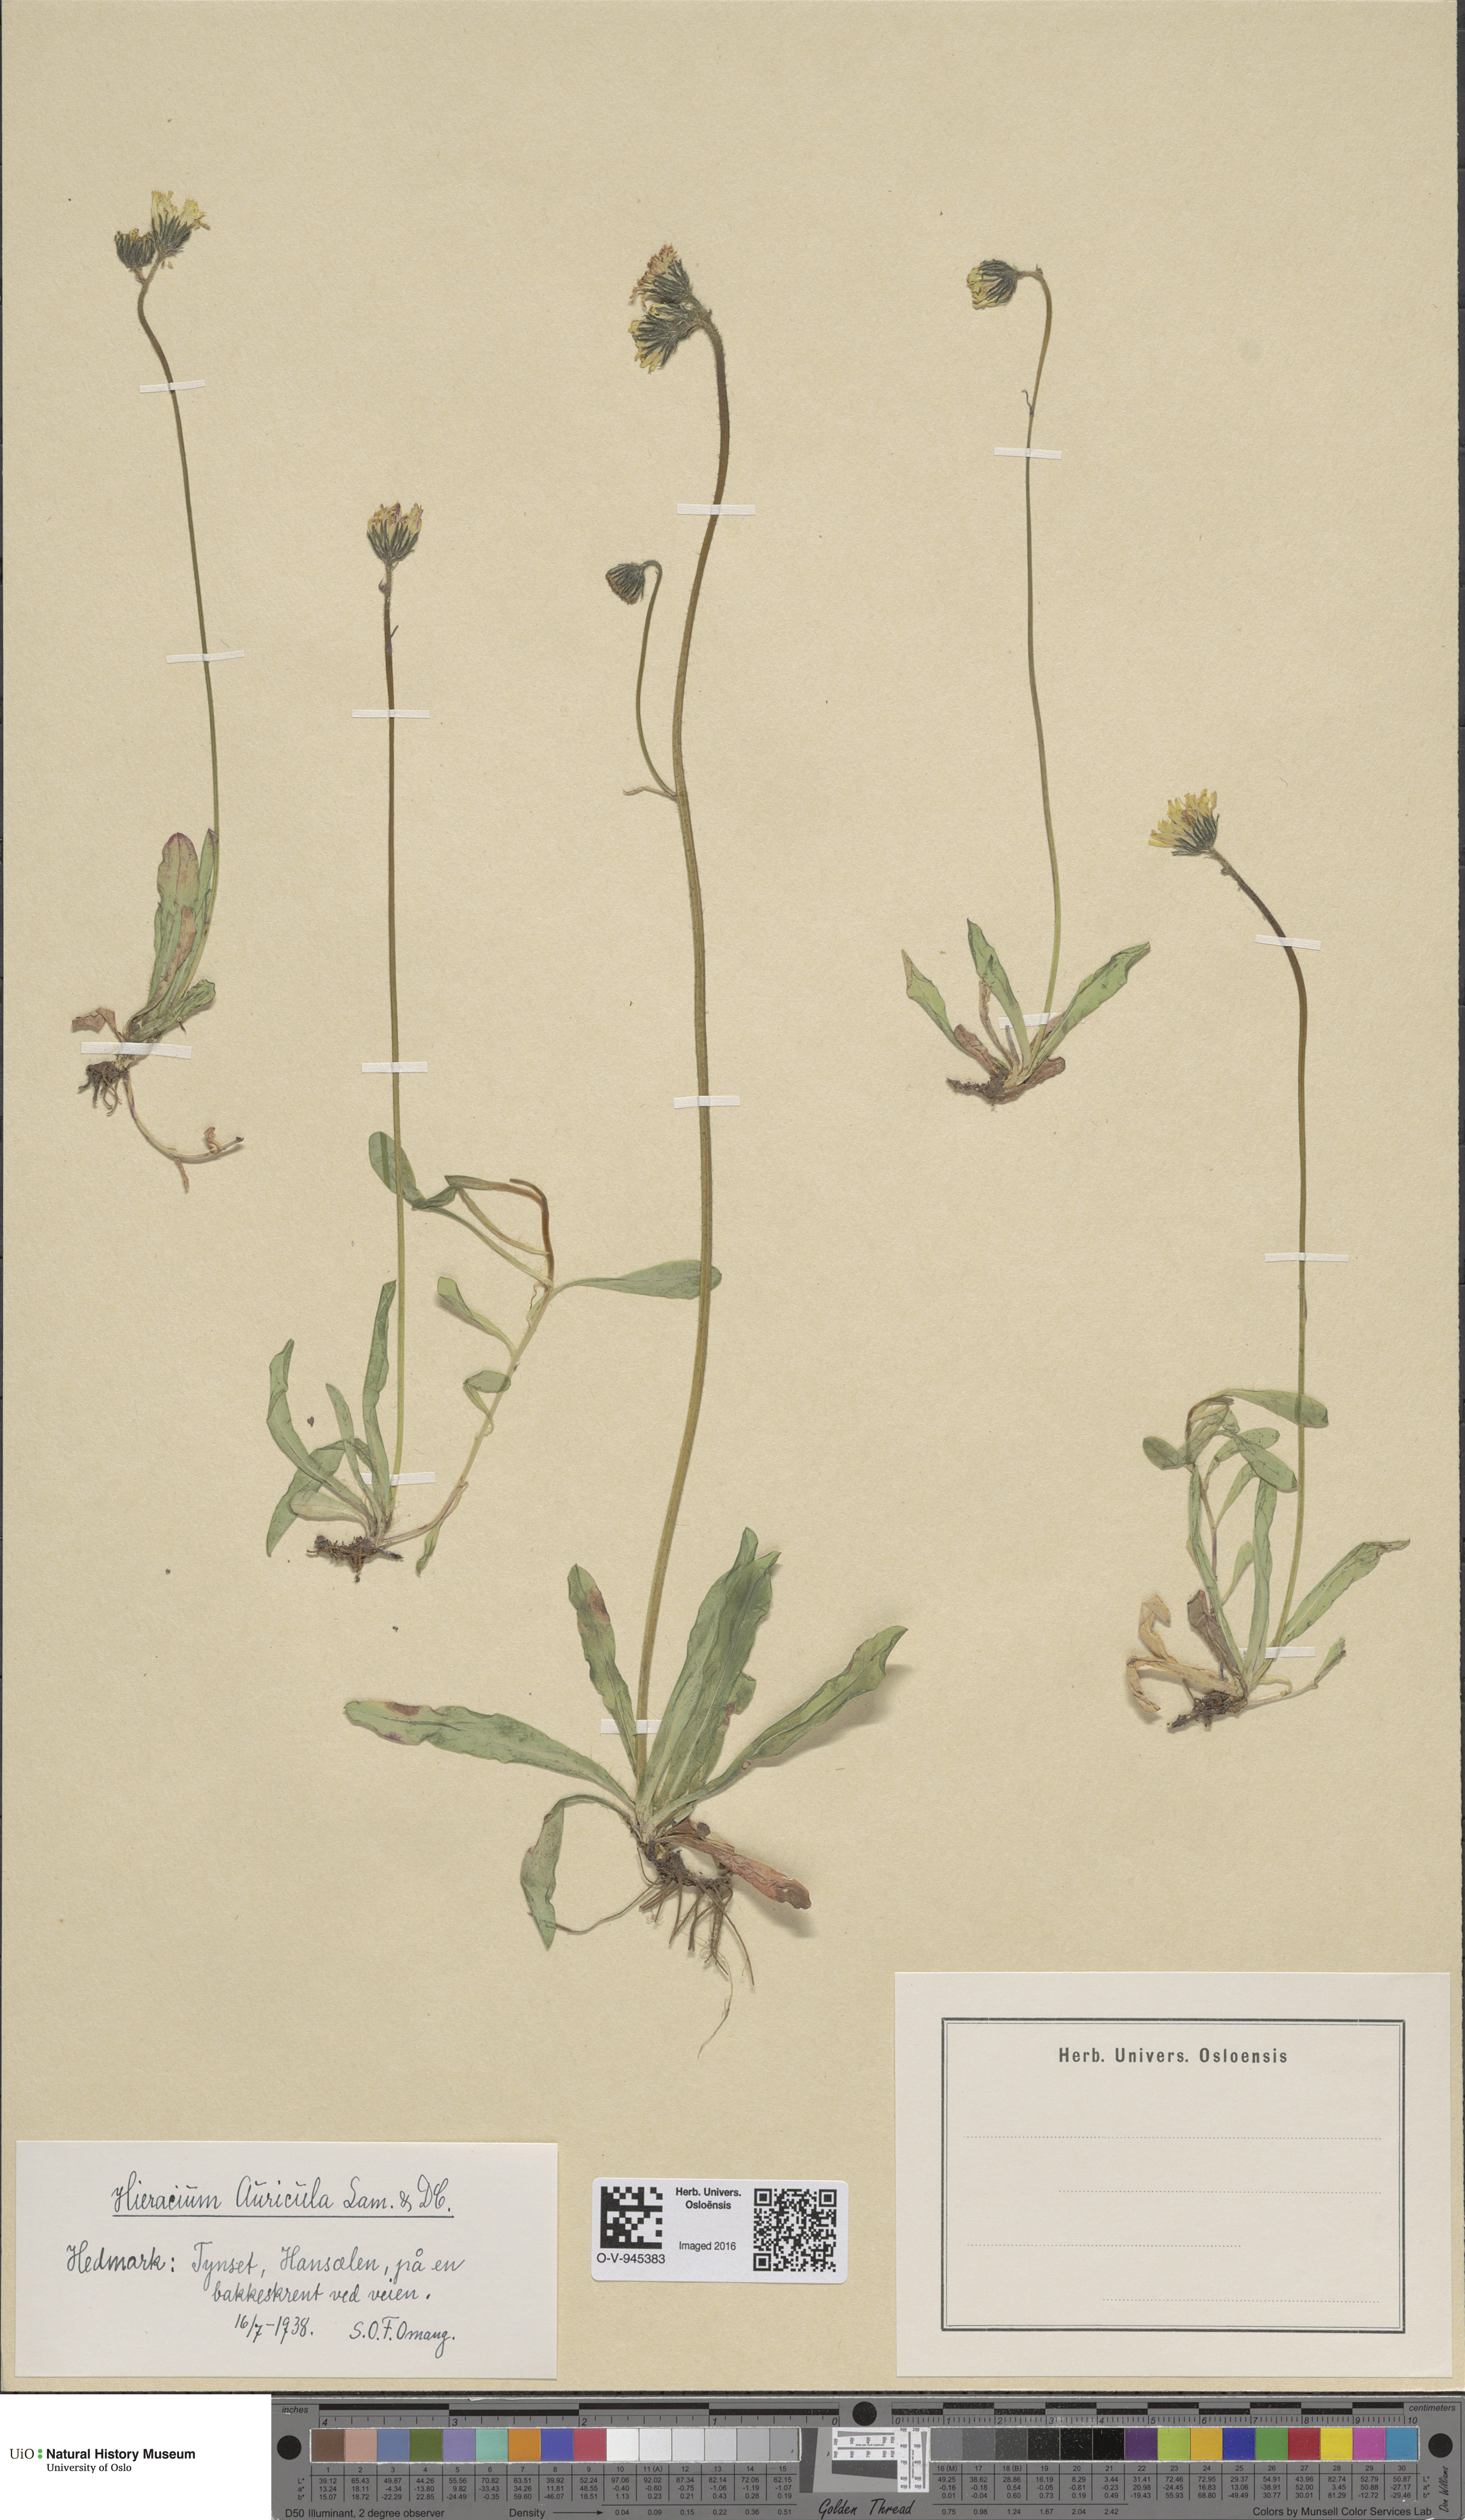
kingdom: Plantae
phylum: Tracheophyta
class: Magnoliopsida
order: Asterales
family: Asteraceae
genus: Pilosella
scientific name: Pilosella lactucella
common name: Glaucous fox-and-cubs
